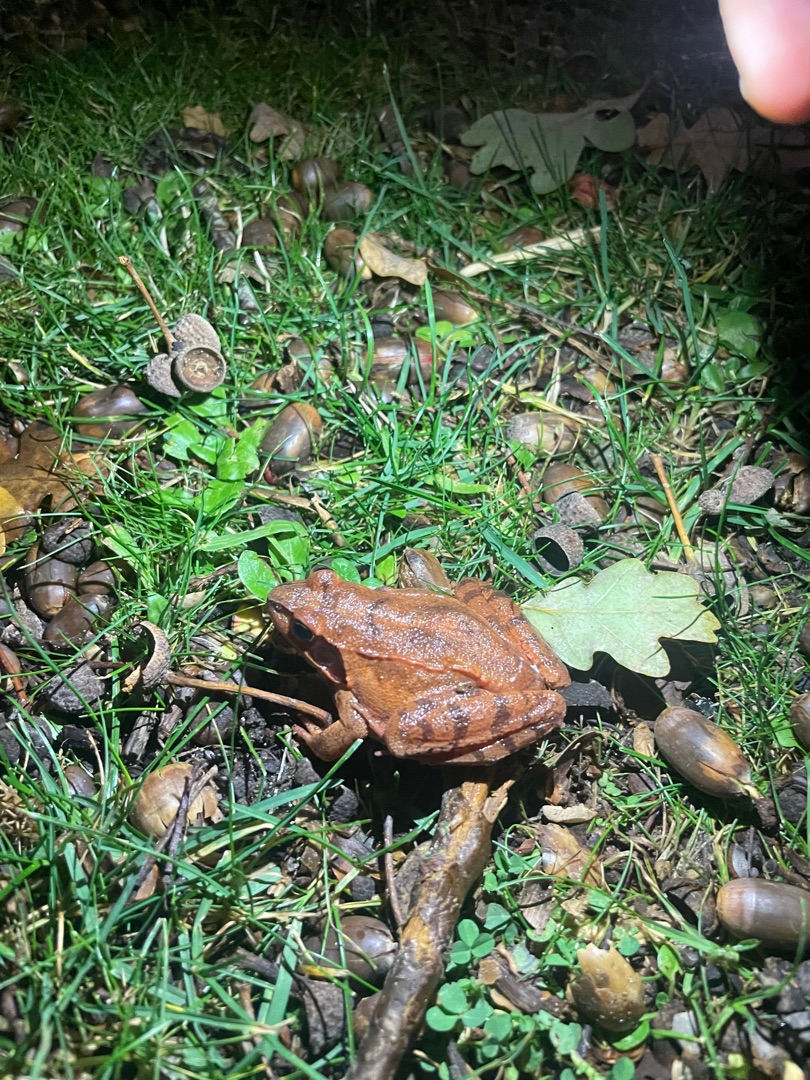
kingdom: Animalia
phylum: Chordata
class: Amphibia
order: Anura
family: Ranidae
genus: Rana
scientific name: Rana dalmatina
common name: Springfrø
